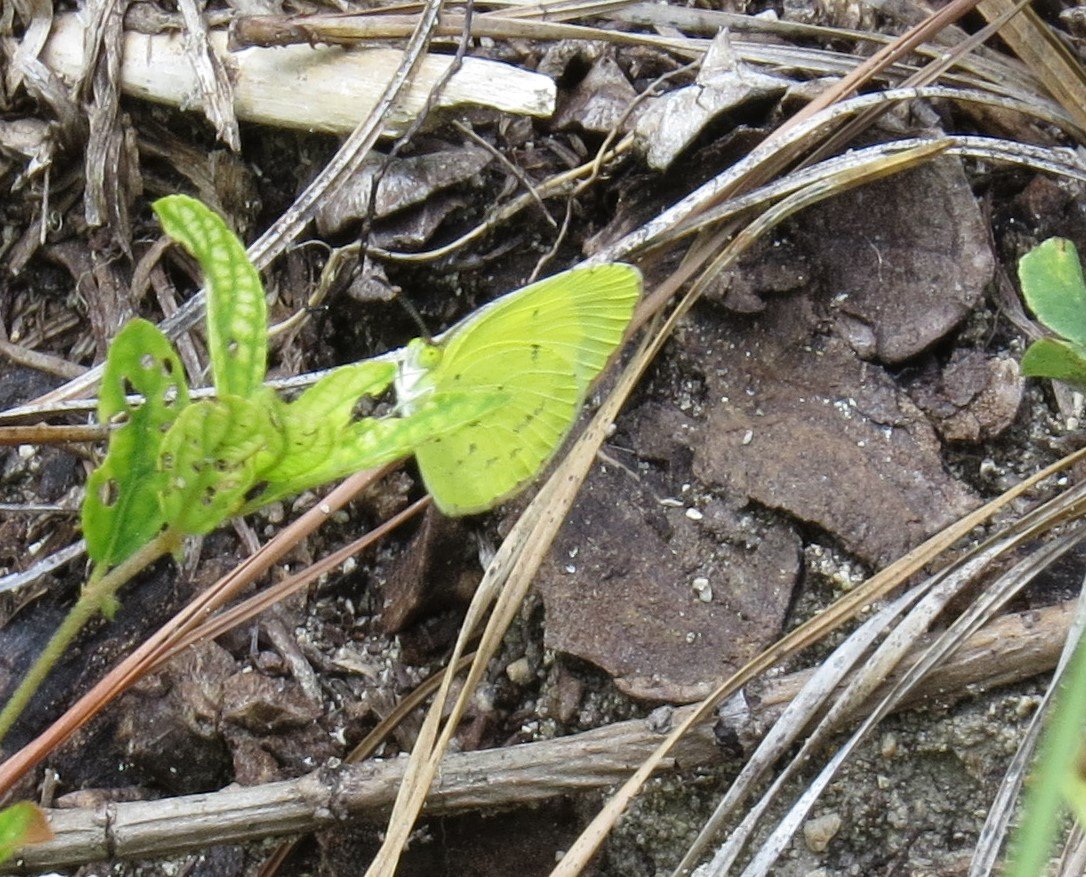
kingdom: Animalia
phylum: Arthropoda
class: Insecta
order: Lepidoptera
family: Pieridae
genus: Pyrisitia
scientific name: Pyrisitia lisa
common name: Little Yellow
